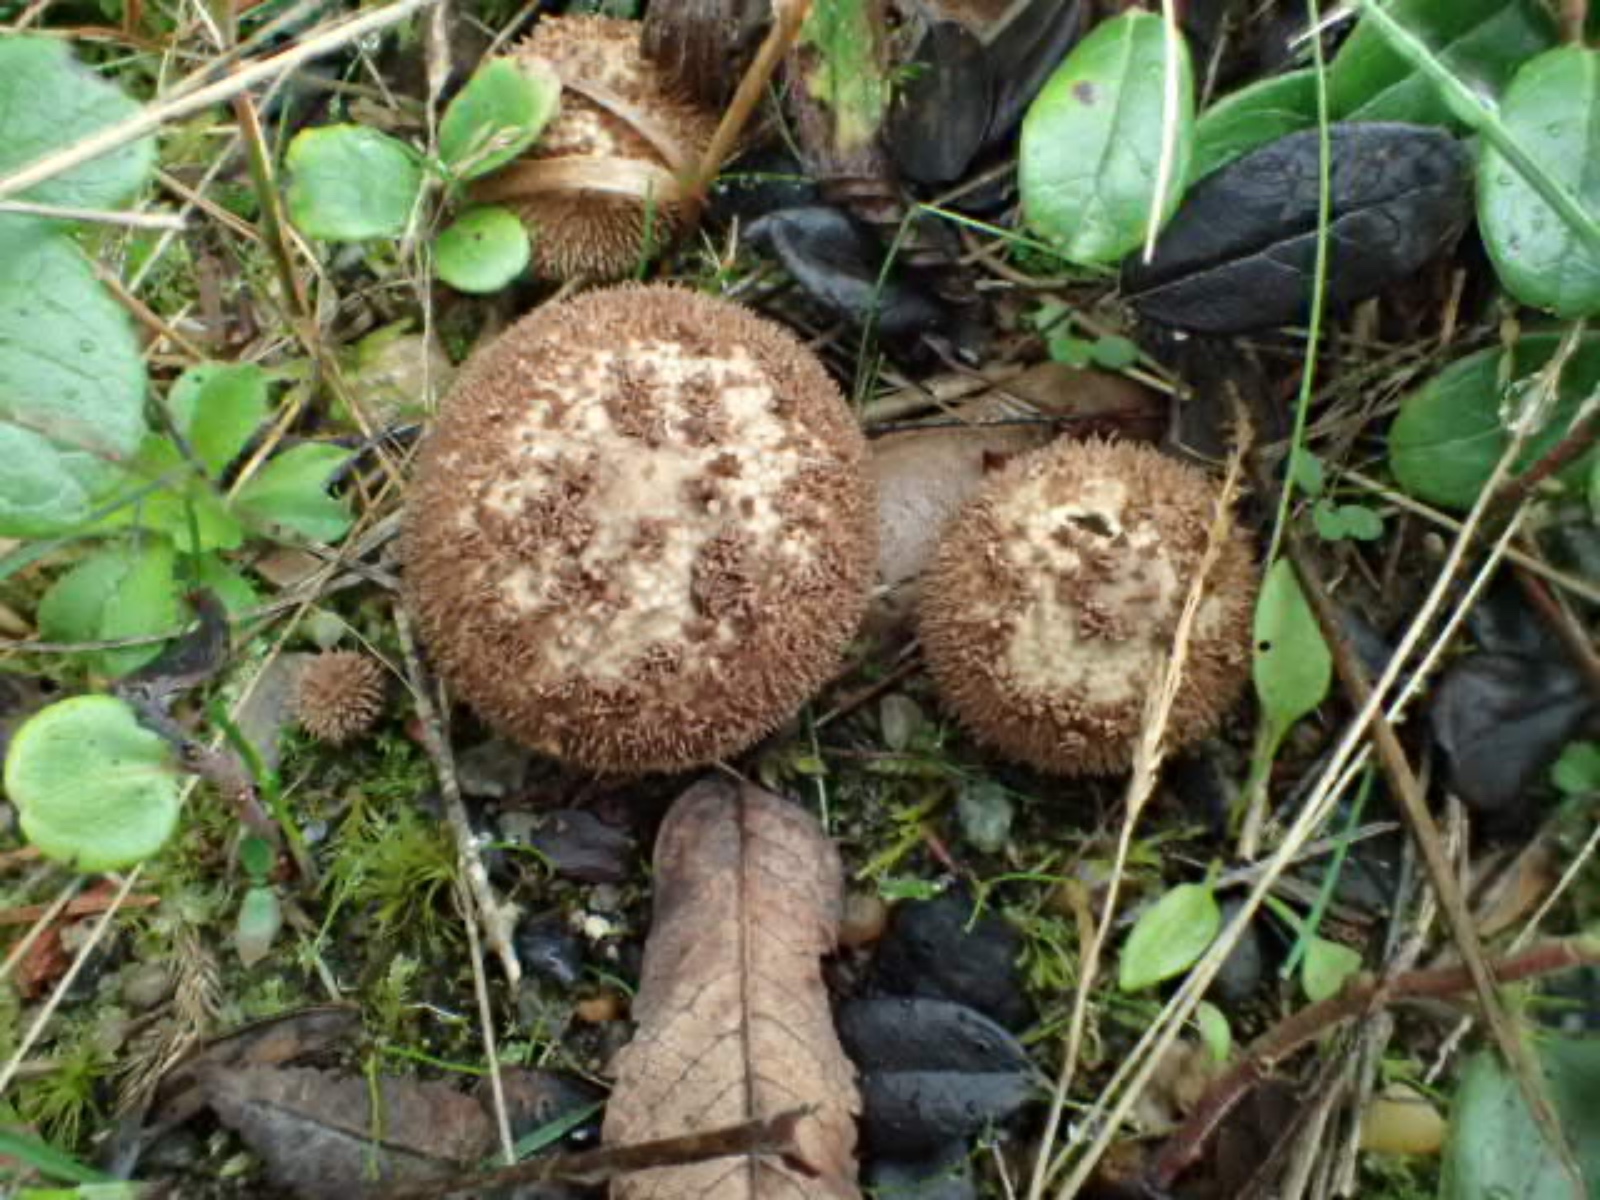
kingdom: Fungi
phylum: Basidiomycota
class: Agaricomycetes
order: Agaricales
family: Lycoperdaceae
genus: Lycoperdon
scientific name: Lycoperdon nigrescens
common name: sortagtig støvbold
